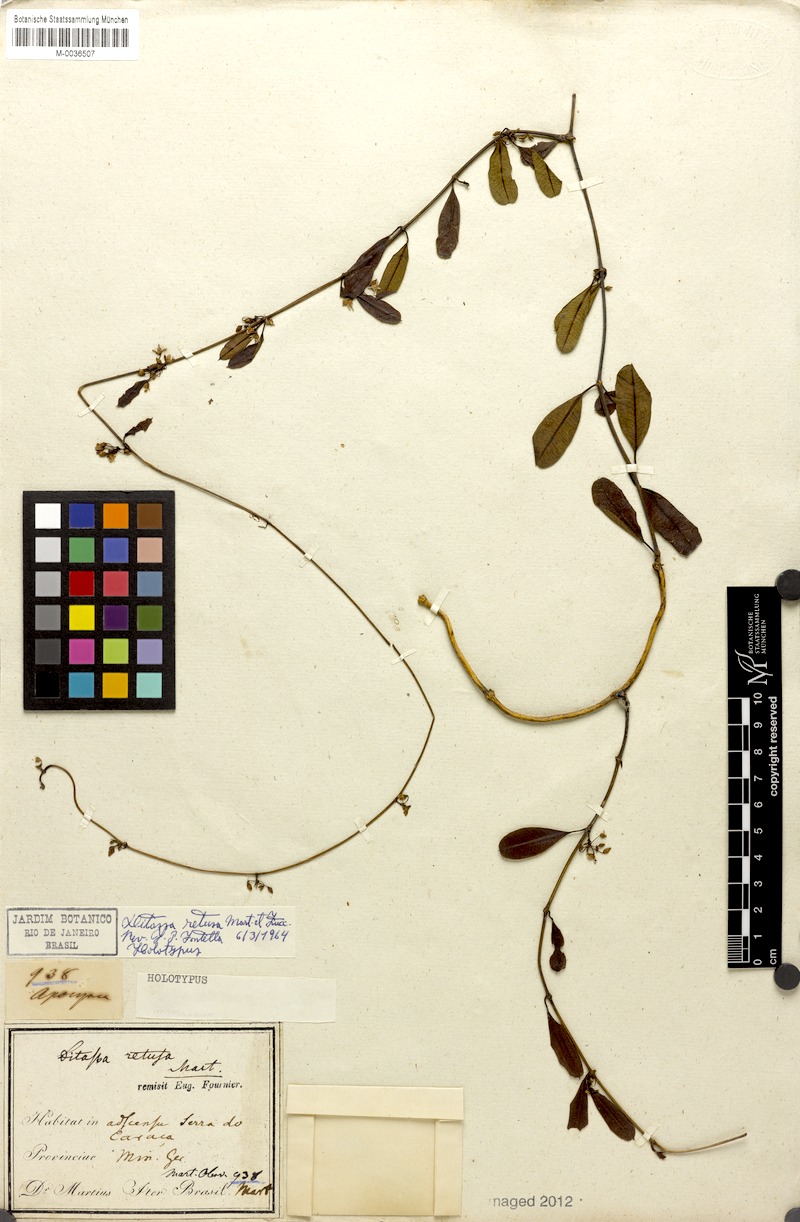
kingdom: Plantae
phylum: Tracheophyta
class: Magnoliopsida
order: Gentianales
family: Apocynaceae
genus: Ditassa
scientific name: Ditassa retusa
